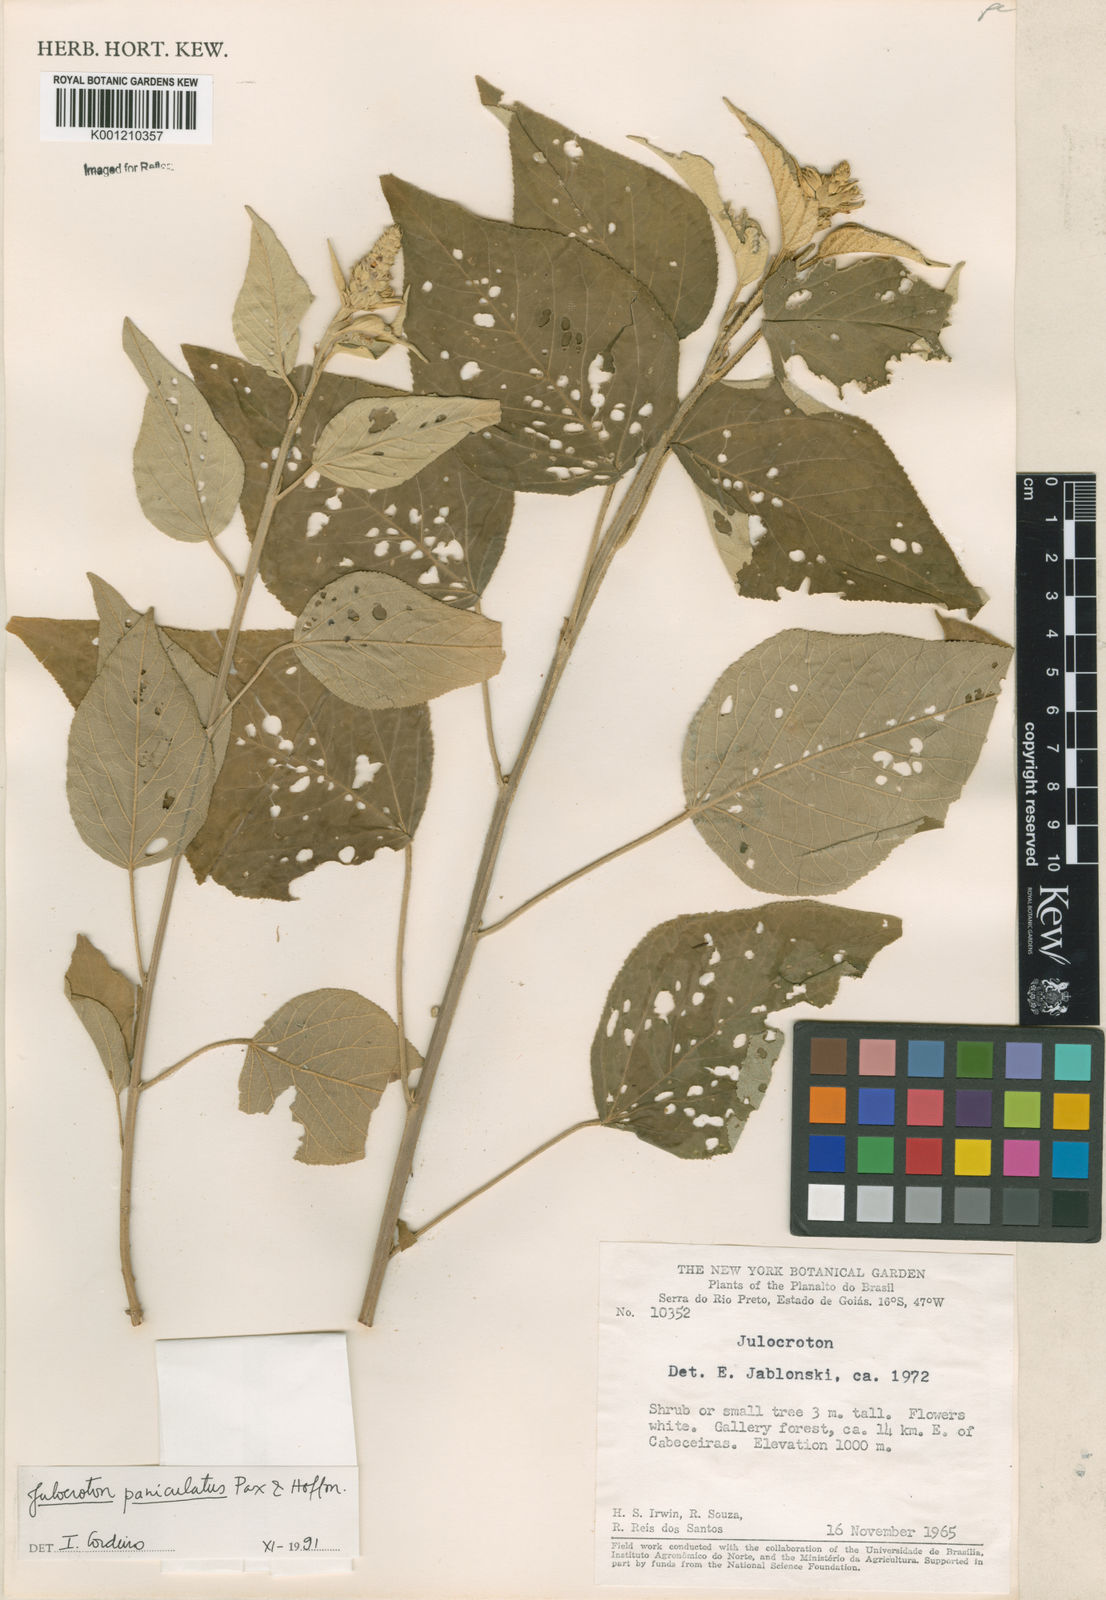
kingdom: Plantae
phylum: Tracheophyta
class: Magnoliopsida
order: Malpighiales
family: Euphorbiaceae
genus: Croton
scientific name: Croton flavispicatus
